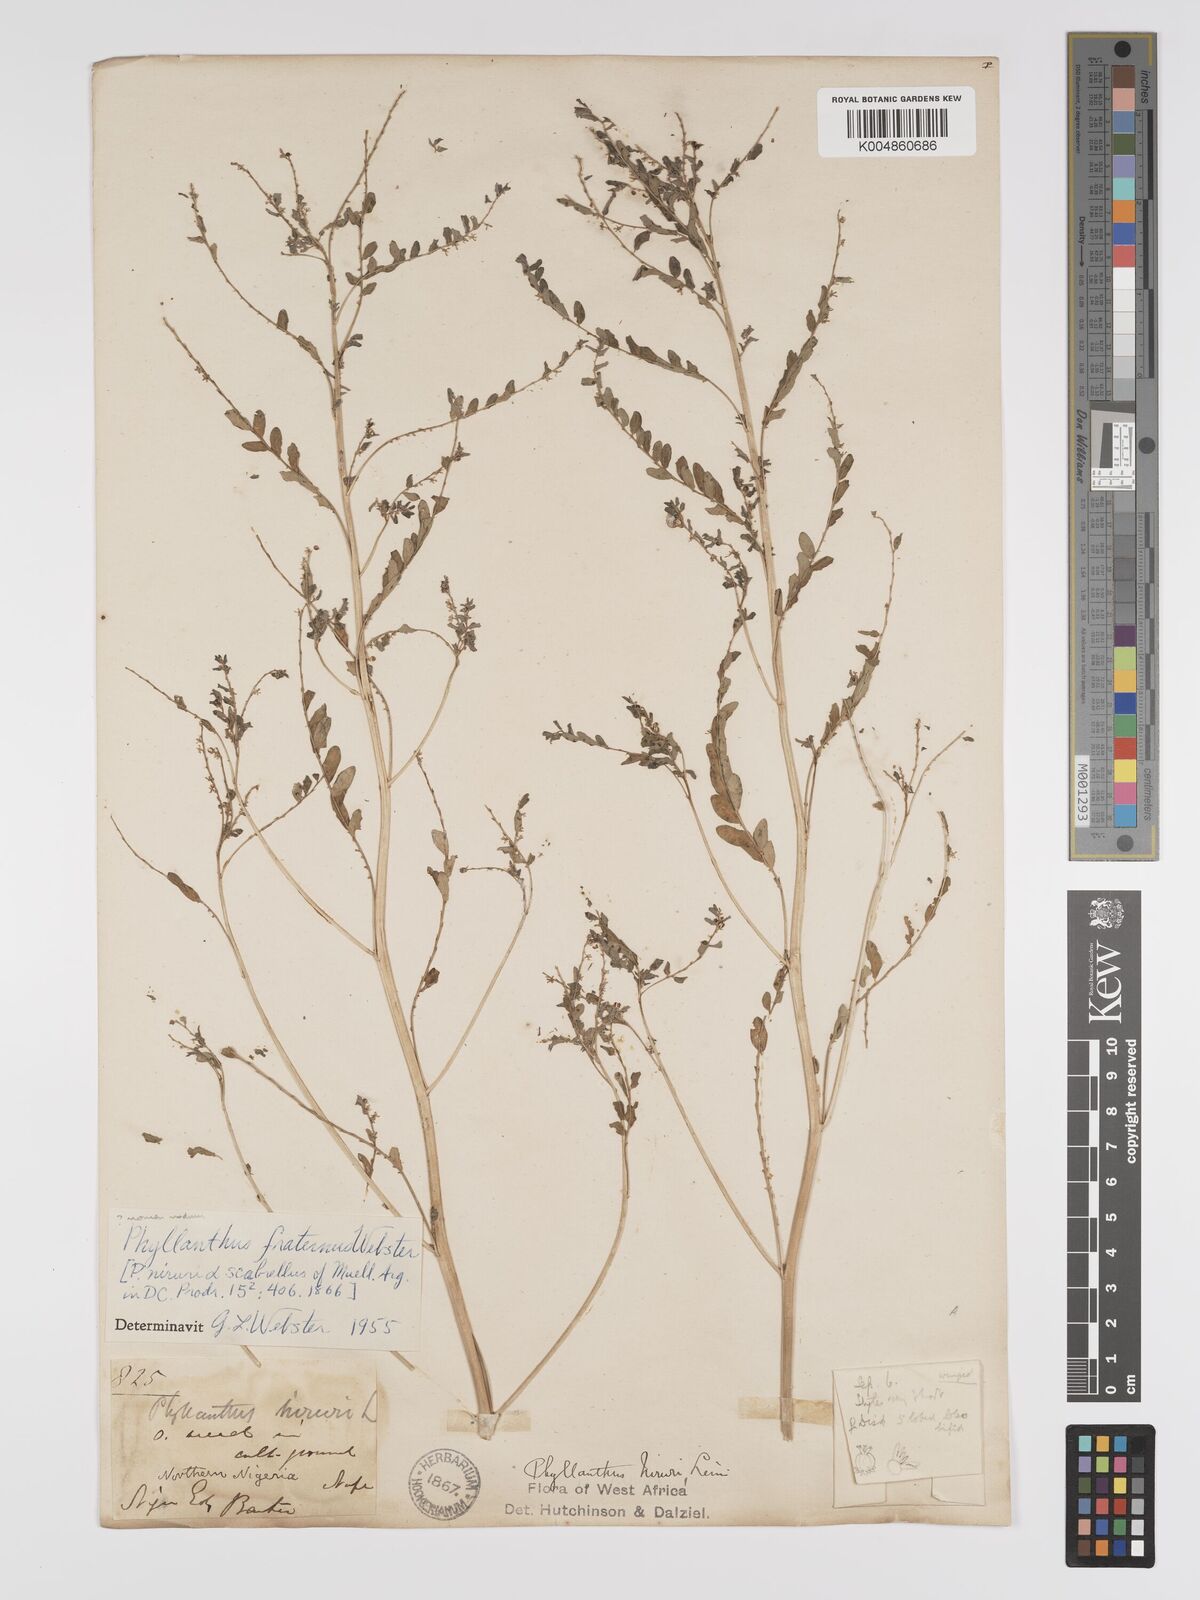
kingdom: Plantae
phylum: Tracheophyta
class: Magnoliopsida
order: Malpighiales
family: Phyllanthaceae
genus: Phyllanthus
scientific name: Phyllanthus fraternus
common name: Gulf leaf-flower
